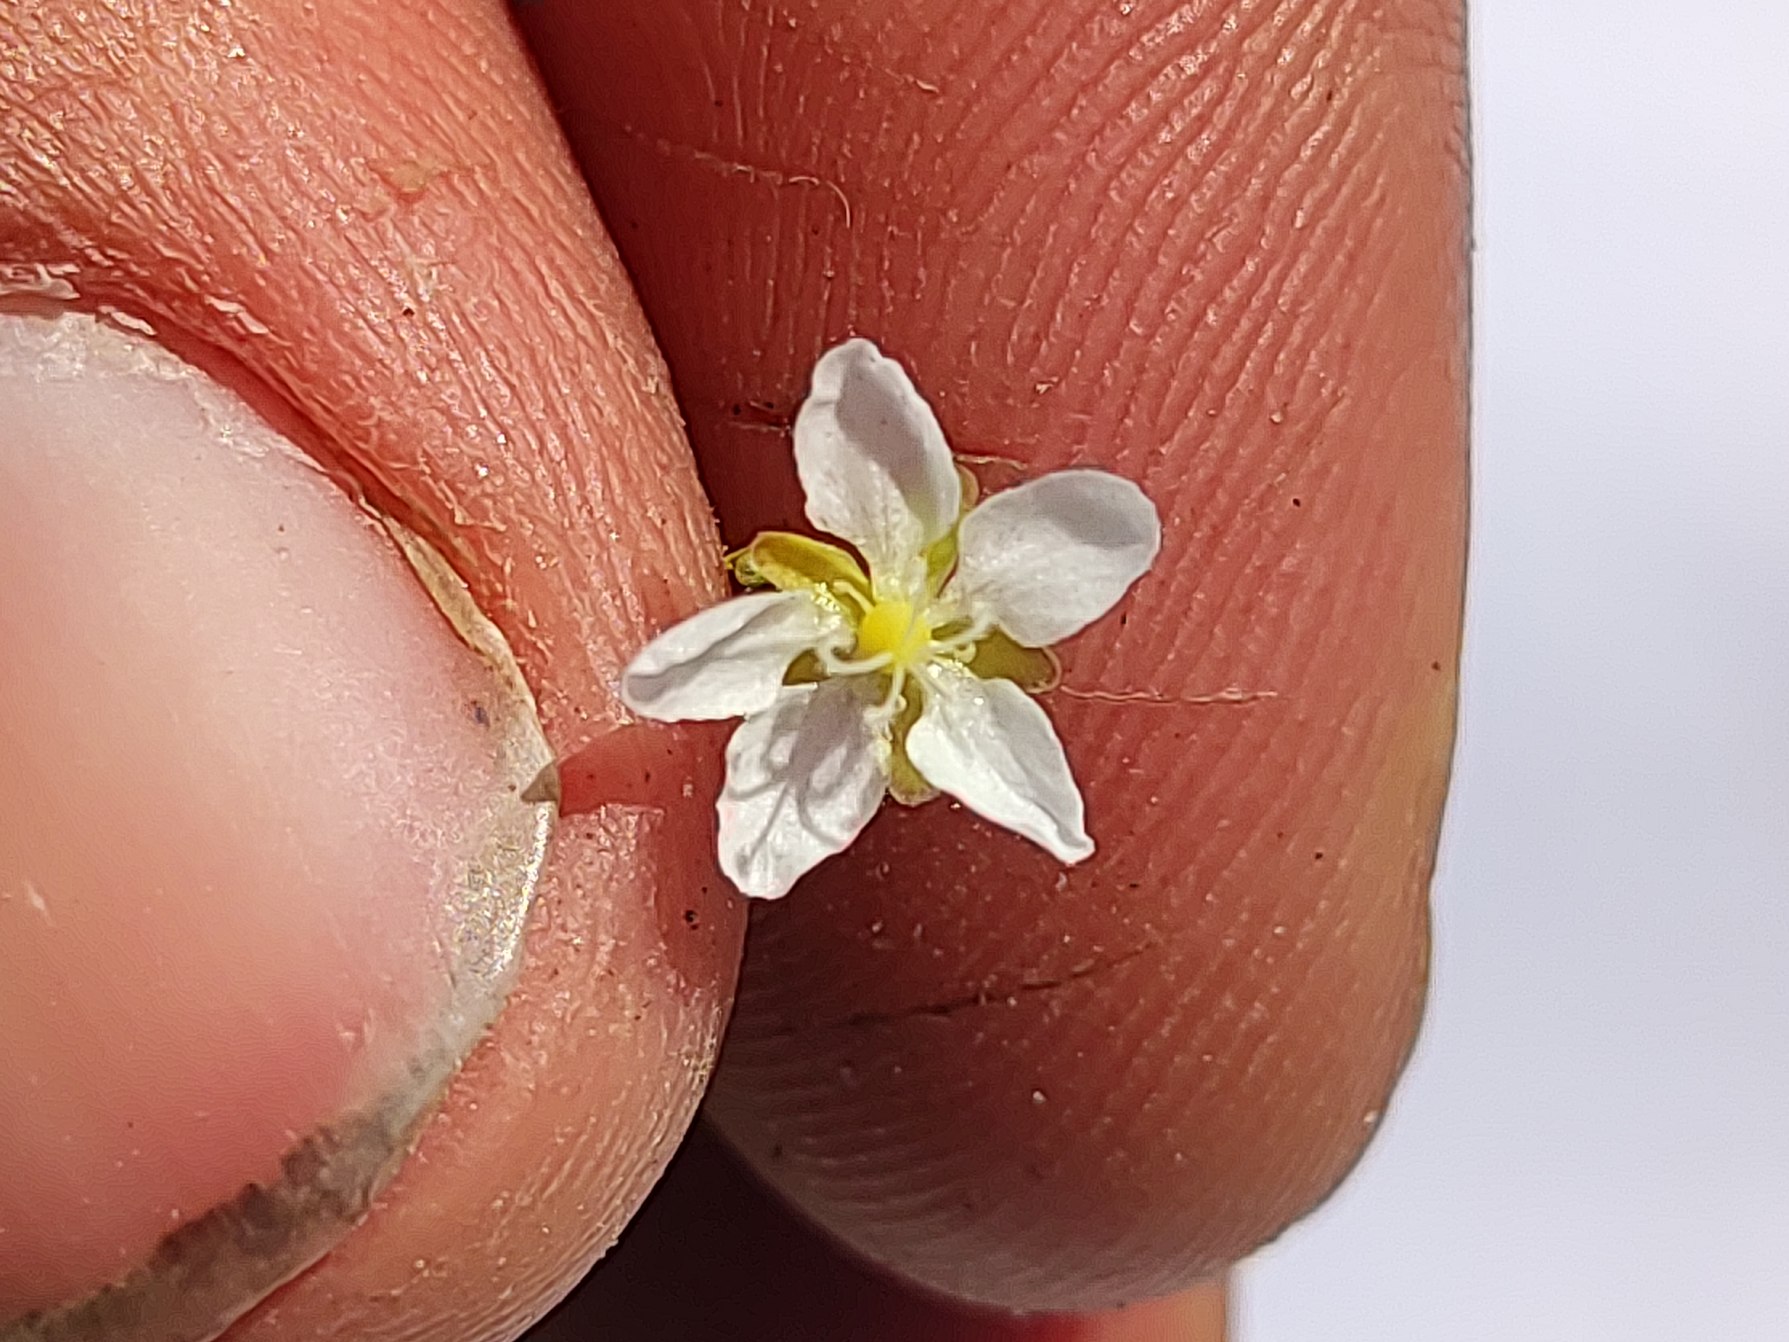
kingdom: Plantae
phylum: Tracheophyta
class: Magnoliopsida
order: Caryophyllales
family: Caryophyllaceae
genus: Sagina
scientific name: Sagina nodosa
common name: Knude-firling
